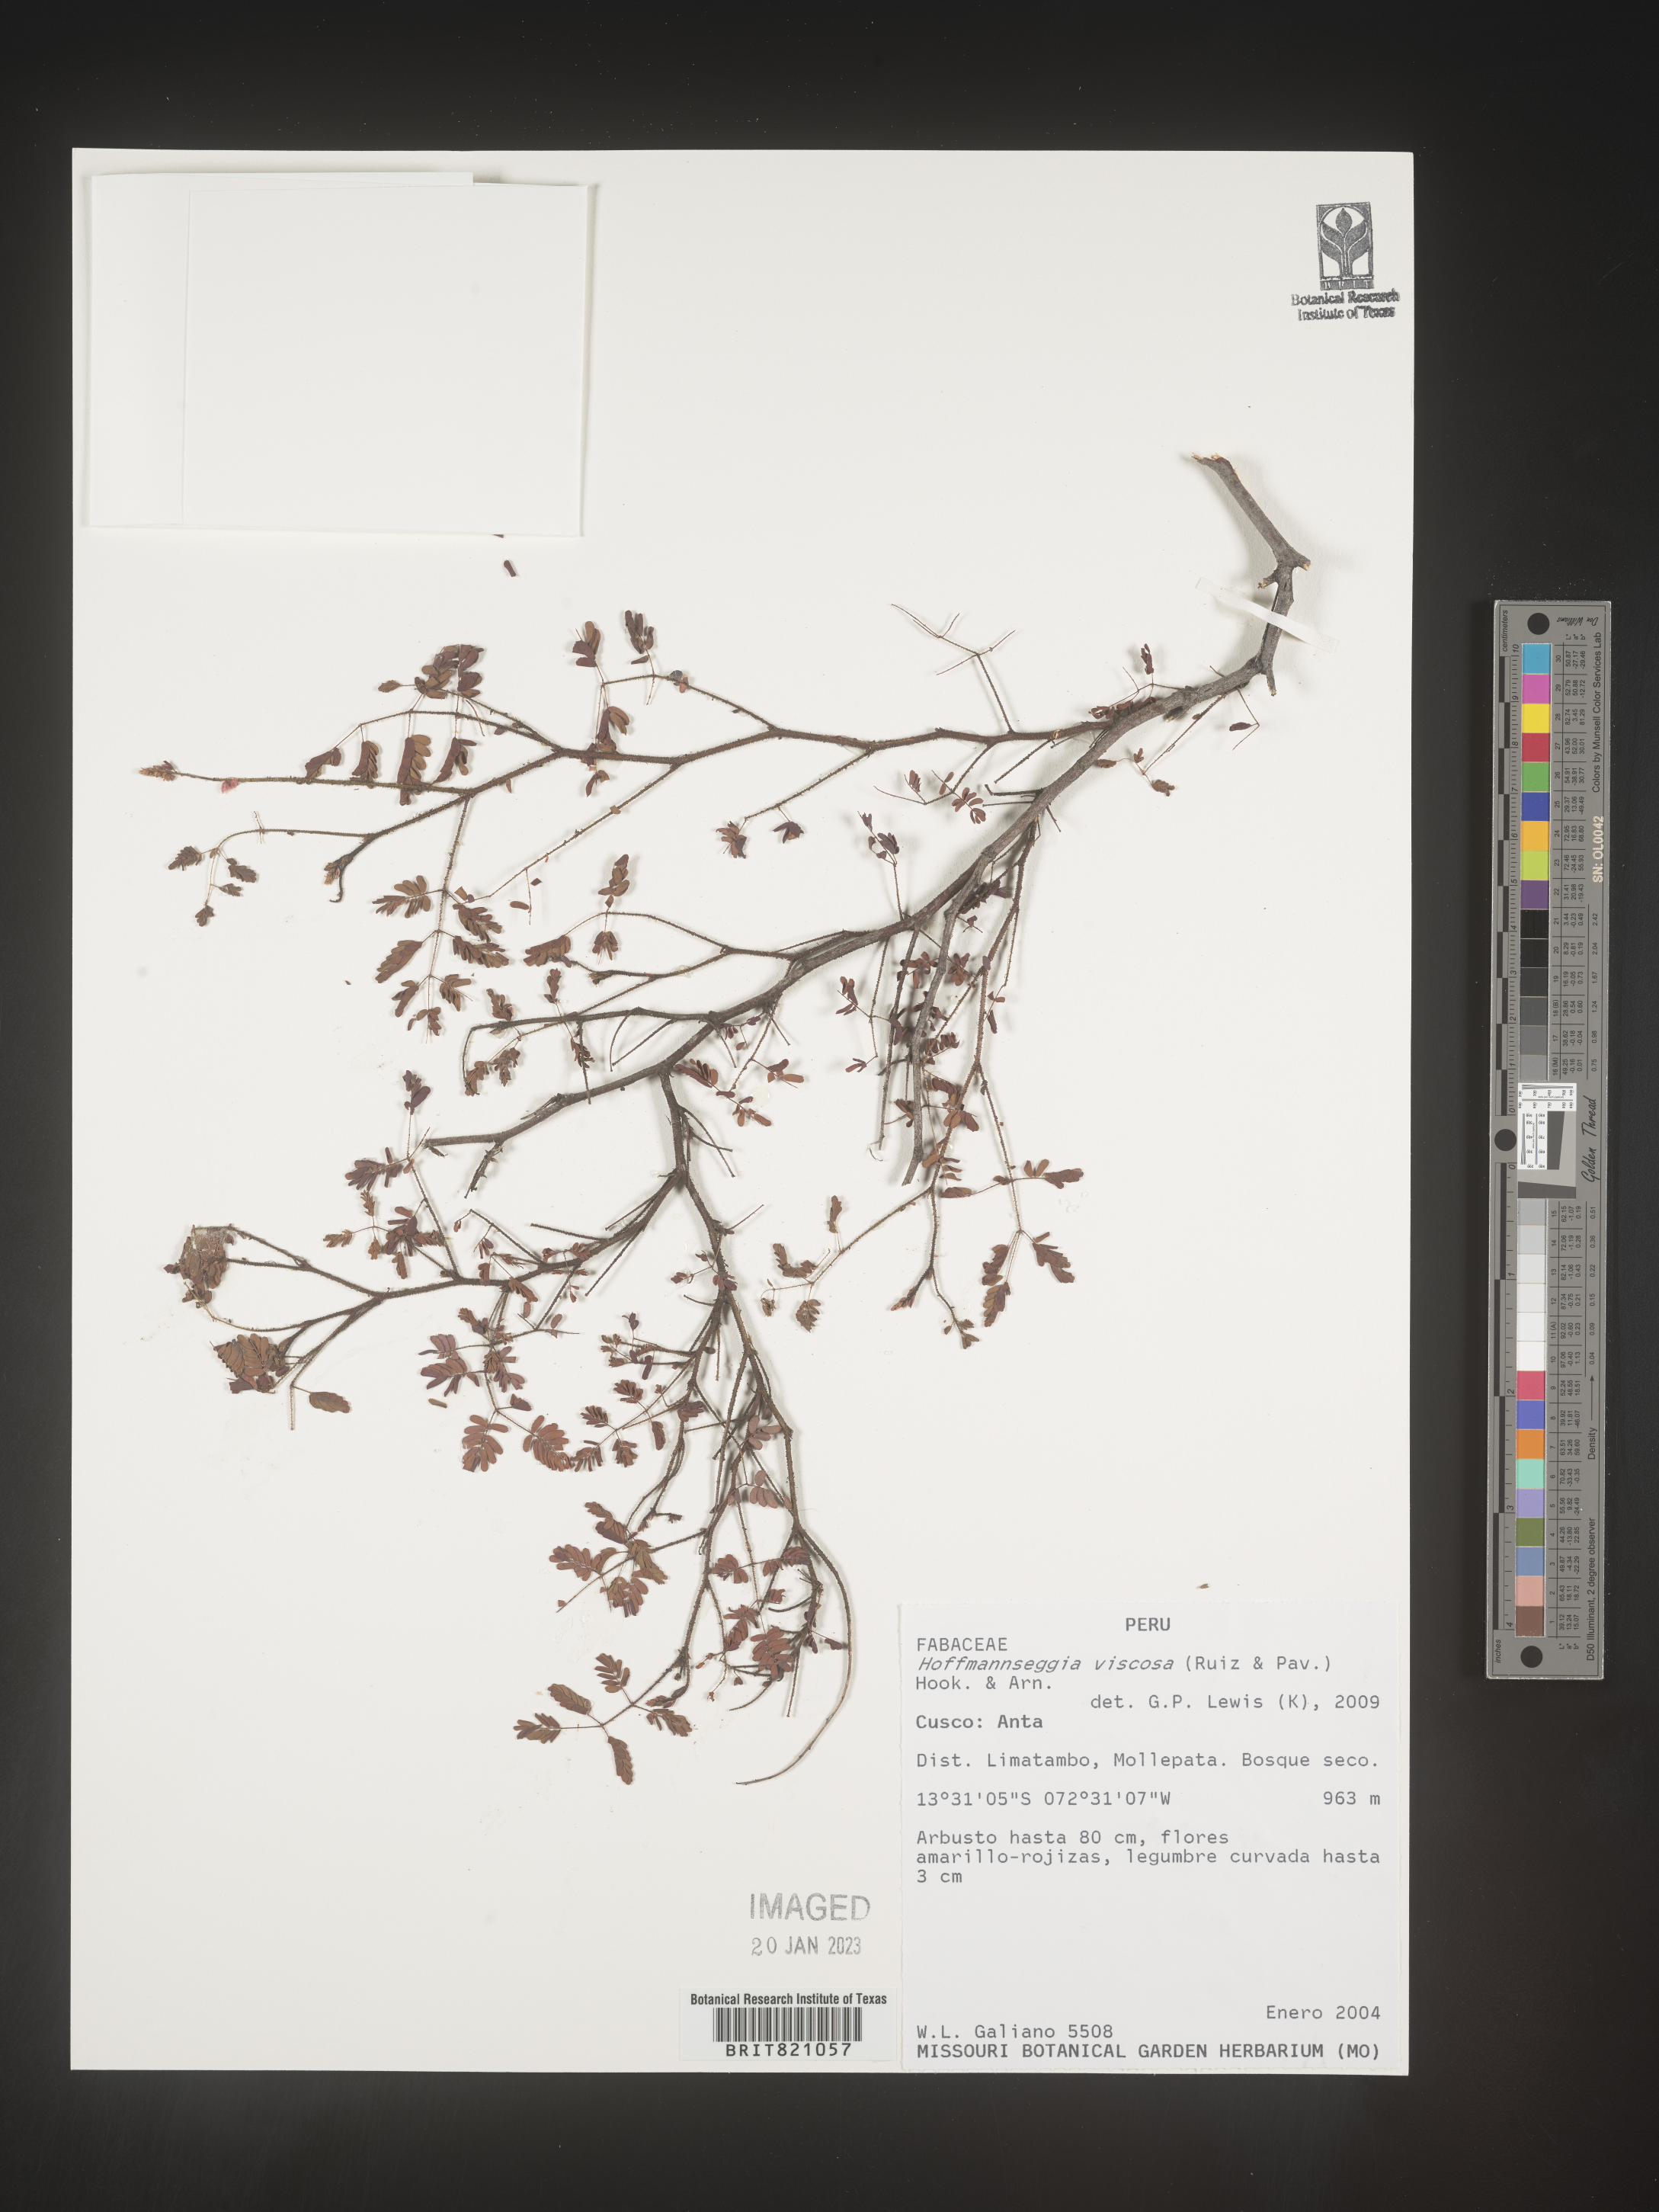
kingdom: Plantae
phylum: Tracheophyta
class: Magnoliopsida
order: Fabales
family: Fabaceae
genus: Hoffmannseggia
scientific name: Hoffmannseggia
